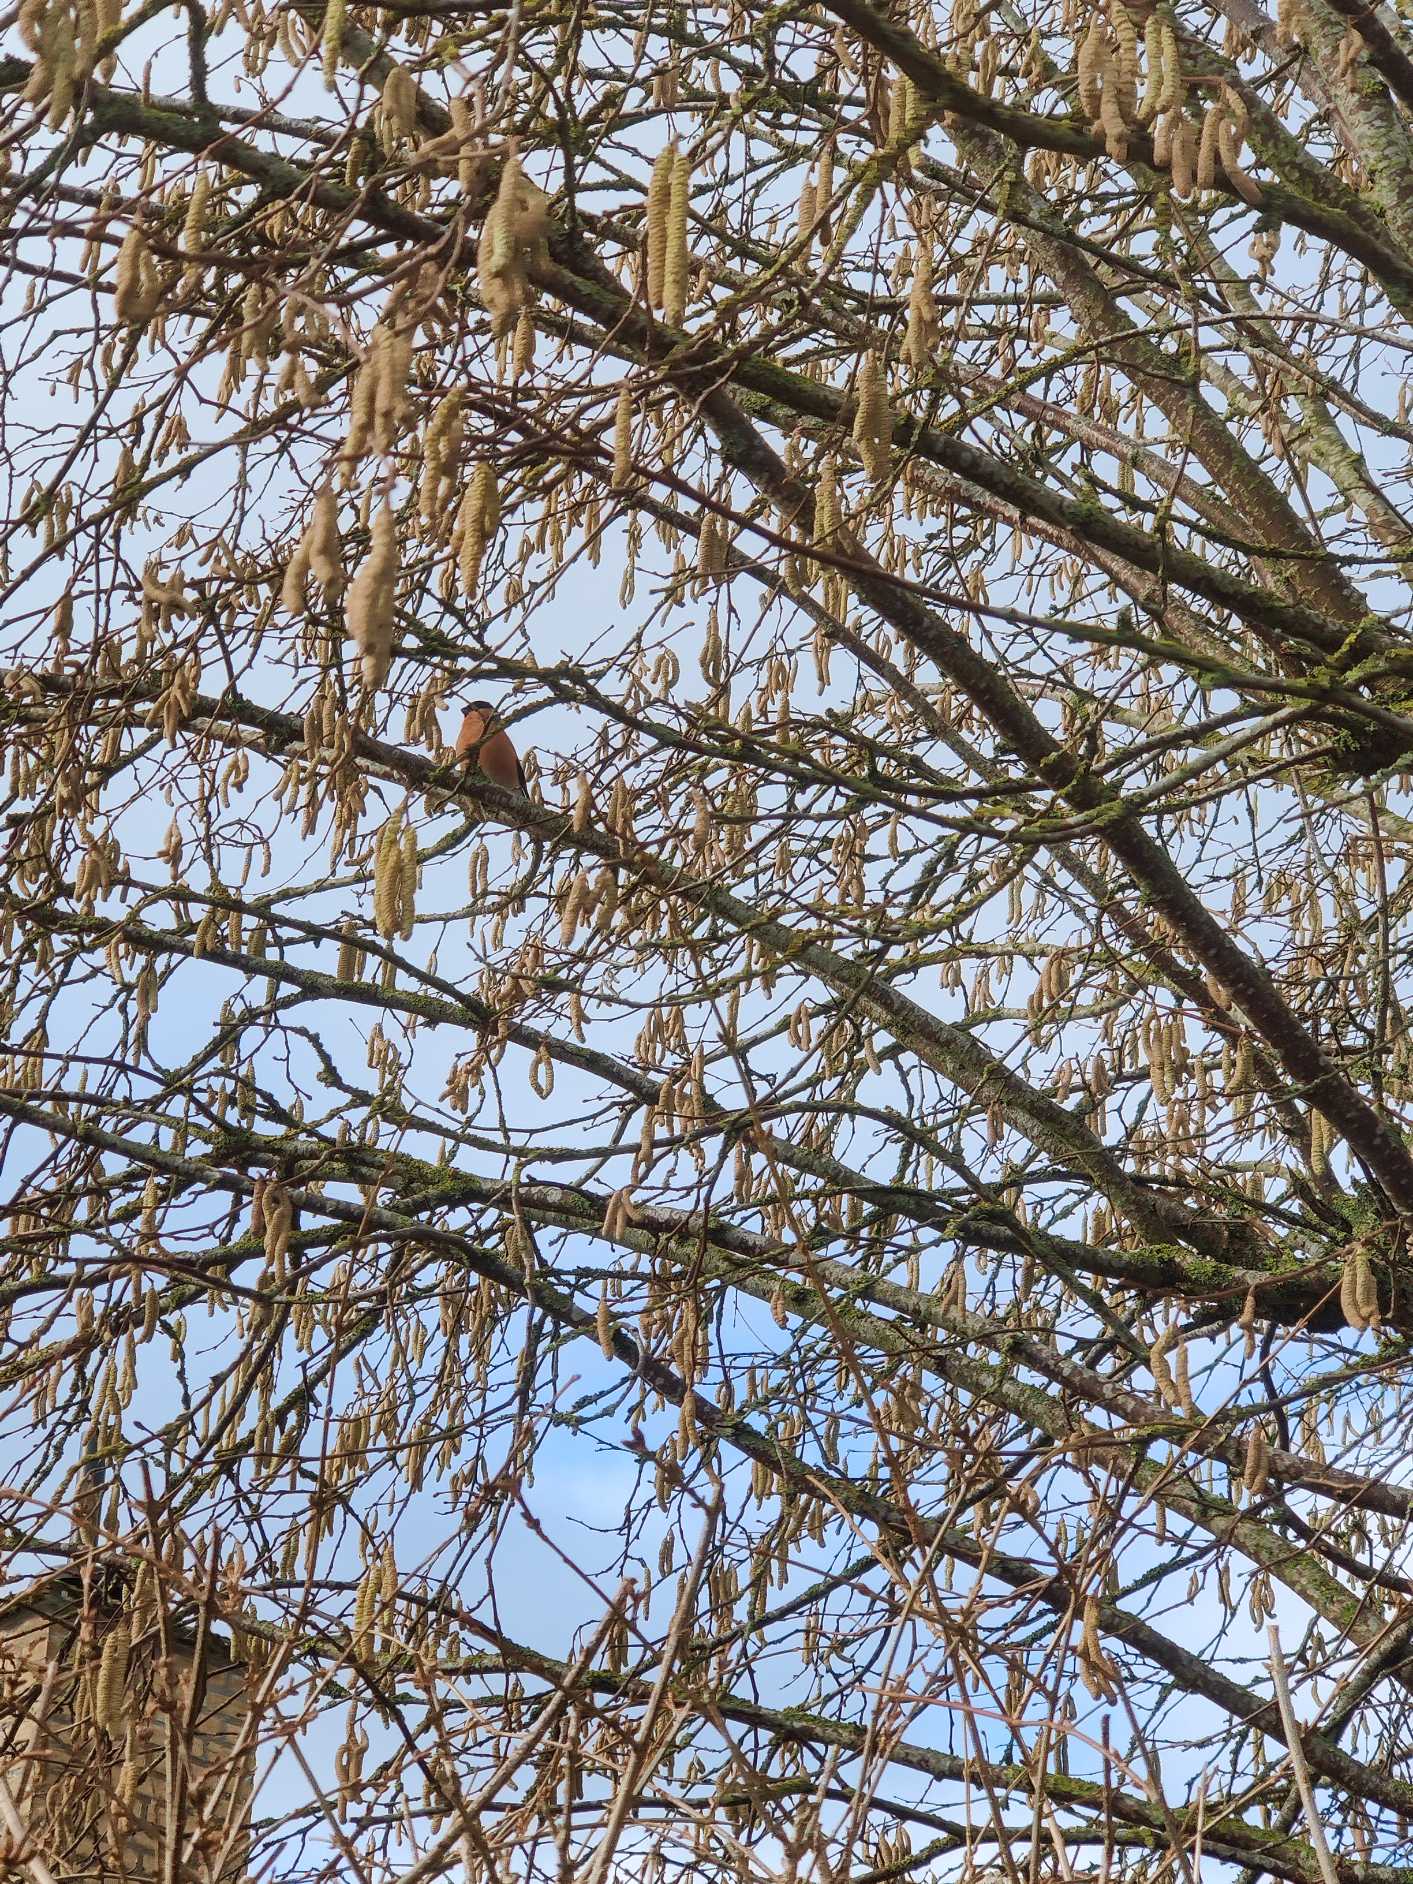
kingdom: Animalia
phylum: Chordata
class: Aves
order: Passeriformes
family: Fringillidae
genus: Pyrrhula
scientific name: Pyrrhula pyrrhula
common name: Dompap
